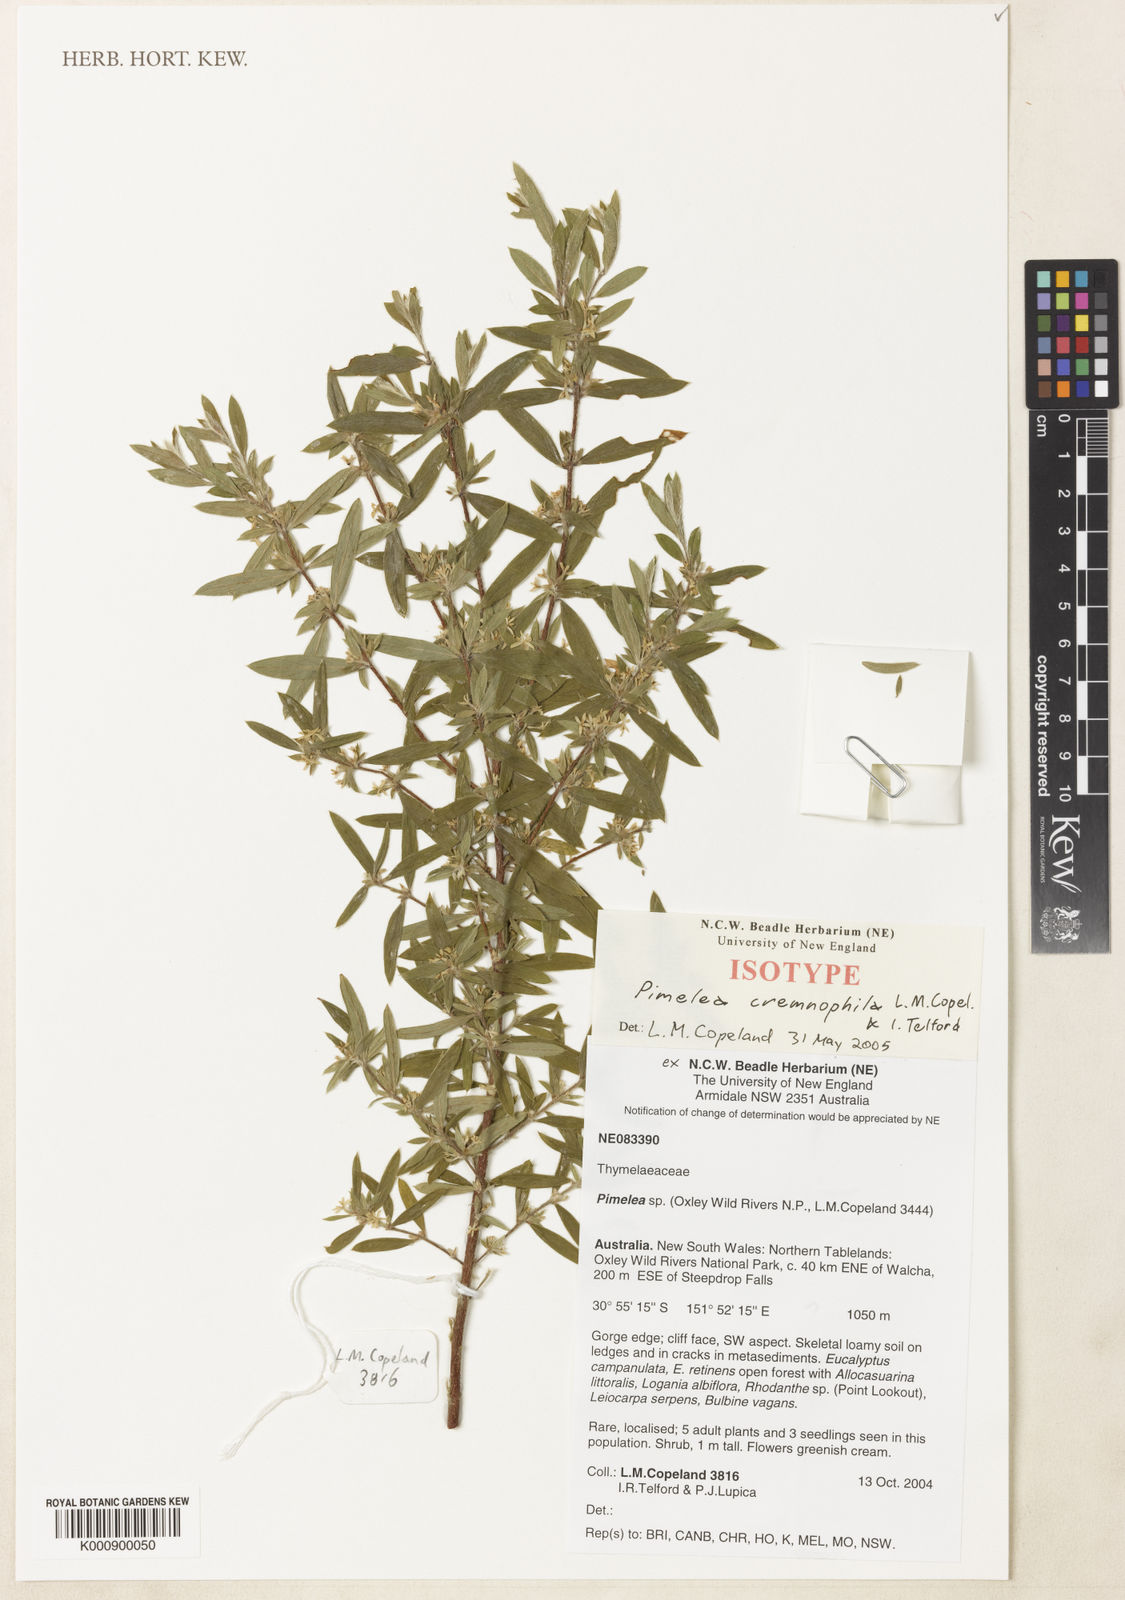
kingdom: Plantae
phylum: Tracheophyta
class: Magnoliopsida
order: Malvales
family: Thymelaeaceae
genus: Pimelea
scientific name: Pimelea cremnophila
